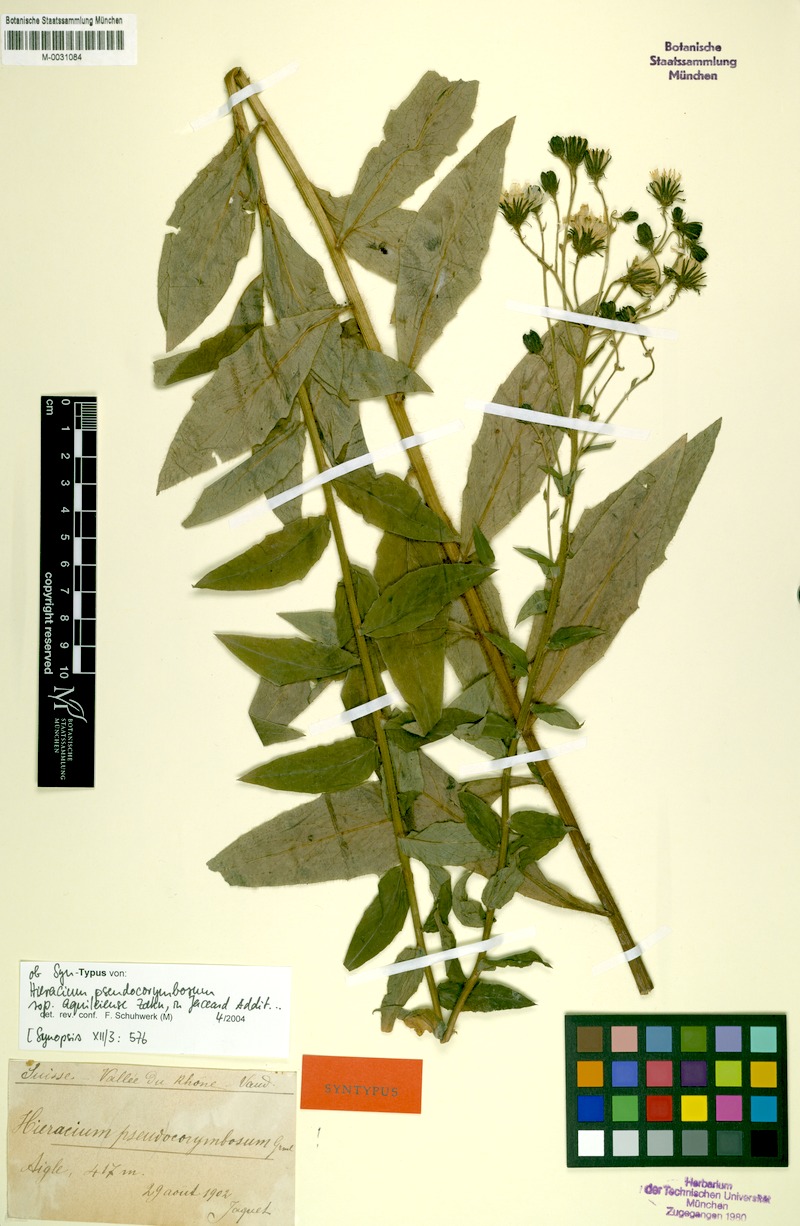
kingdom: Plantae
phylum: Tracheophyta
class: Magnoliopsida
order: Asterales
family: Asteraceae
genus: Hieracium
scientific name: Hieracium pseudocorymbosum
